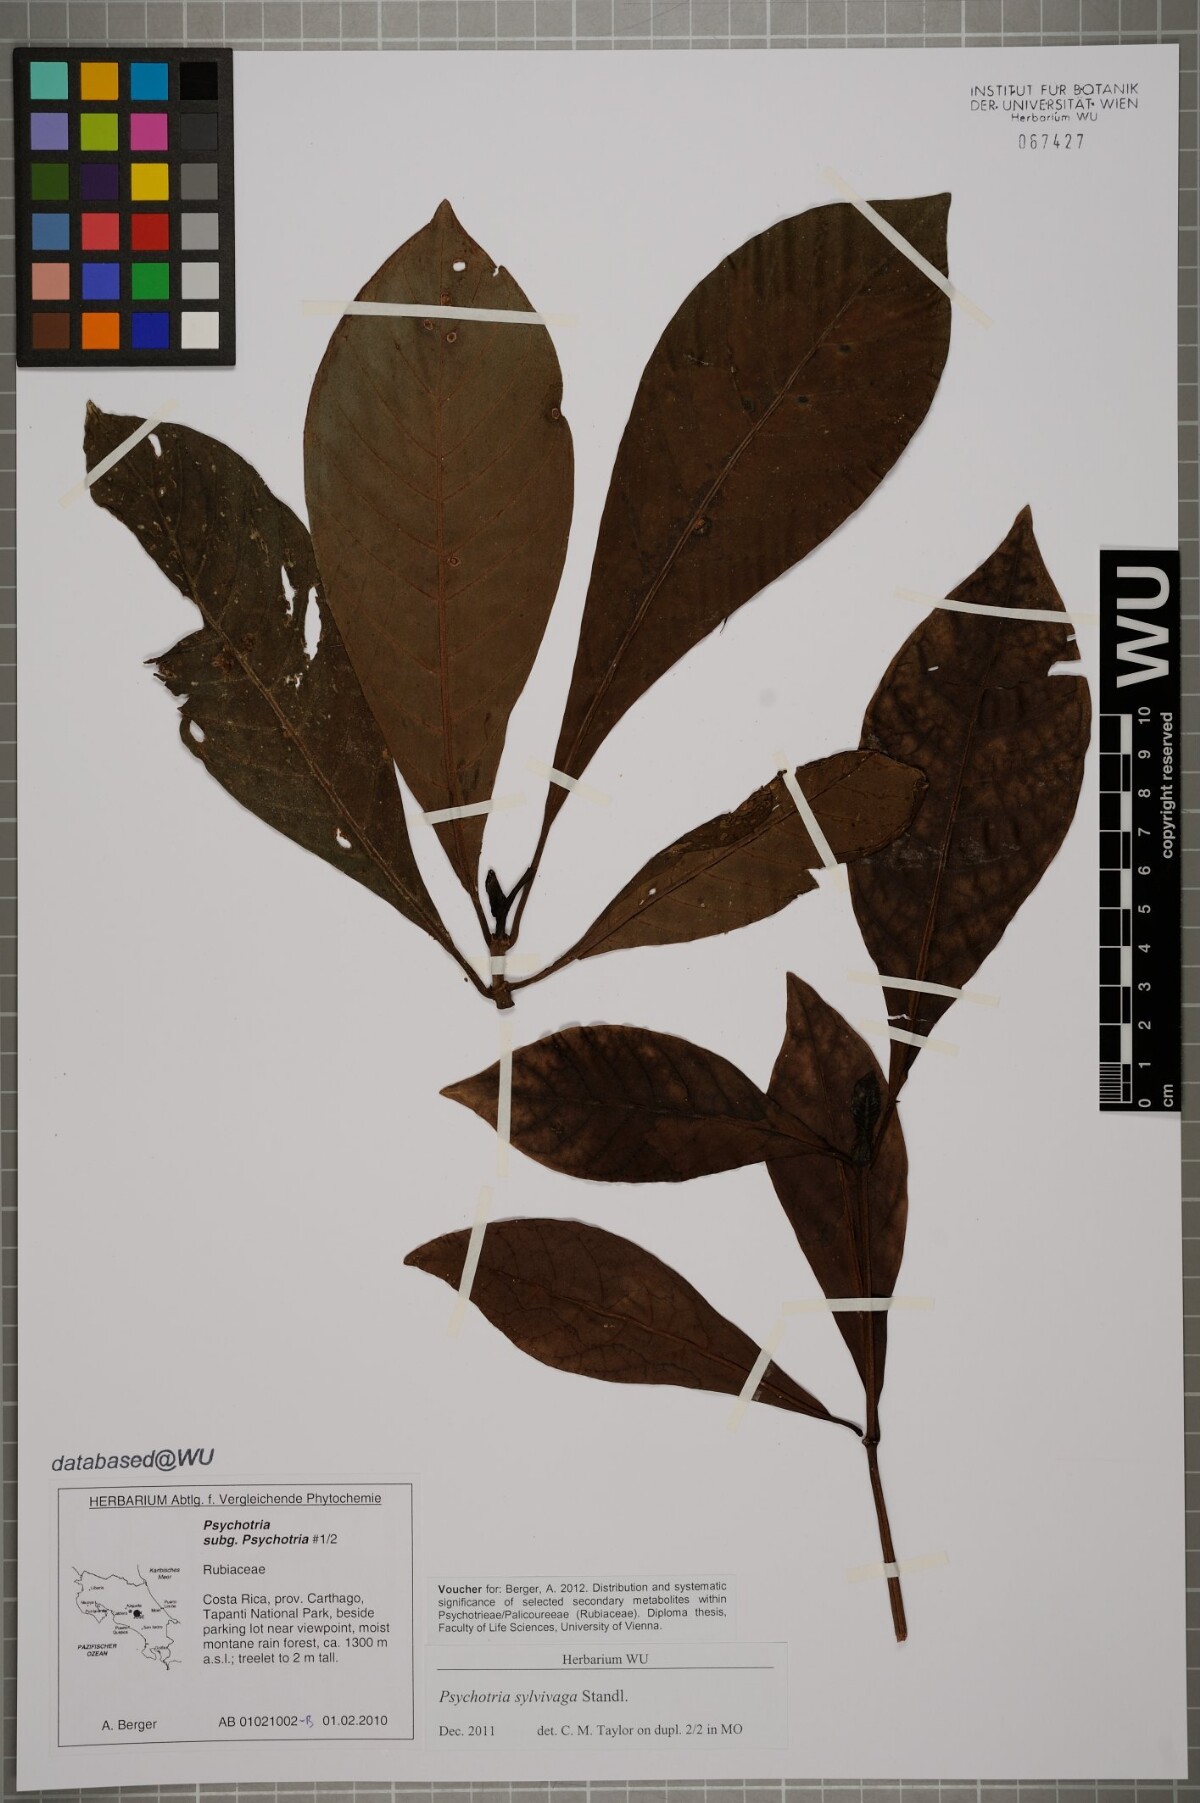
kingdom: Plantae
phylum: Tracheophyta
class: Magnoliopsida
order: Gentianales
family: Rubiaceae
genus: Psychotria
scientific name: Psychotria sylvivaga
